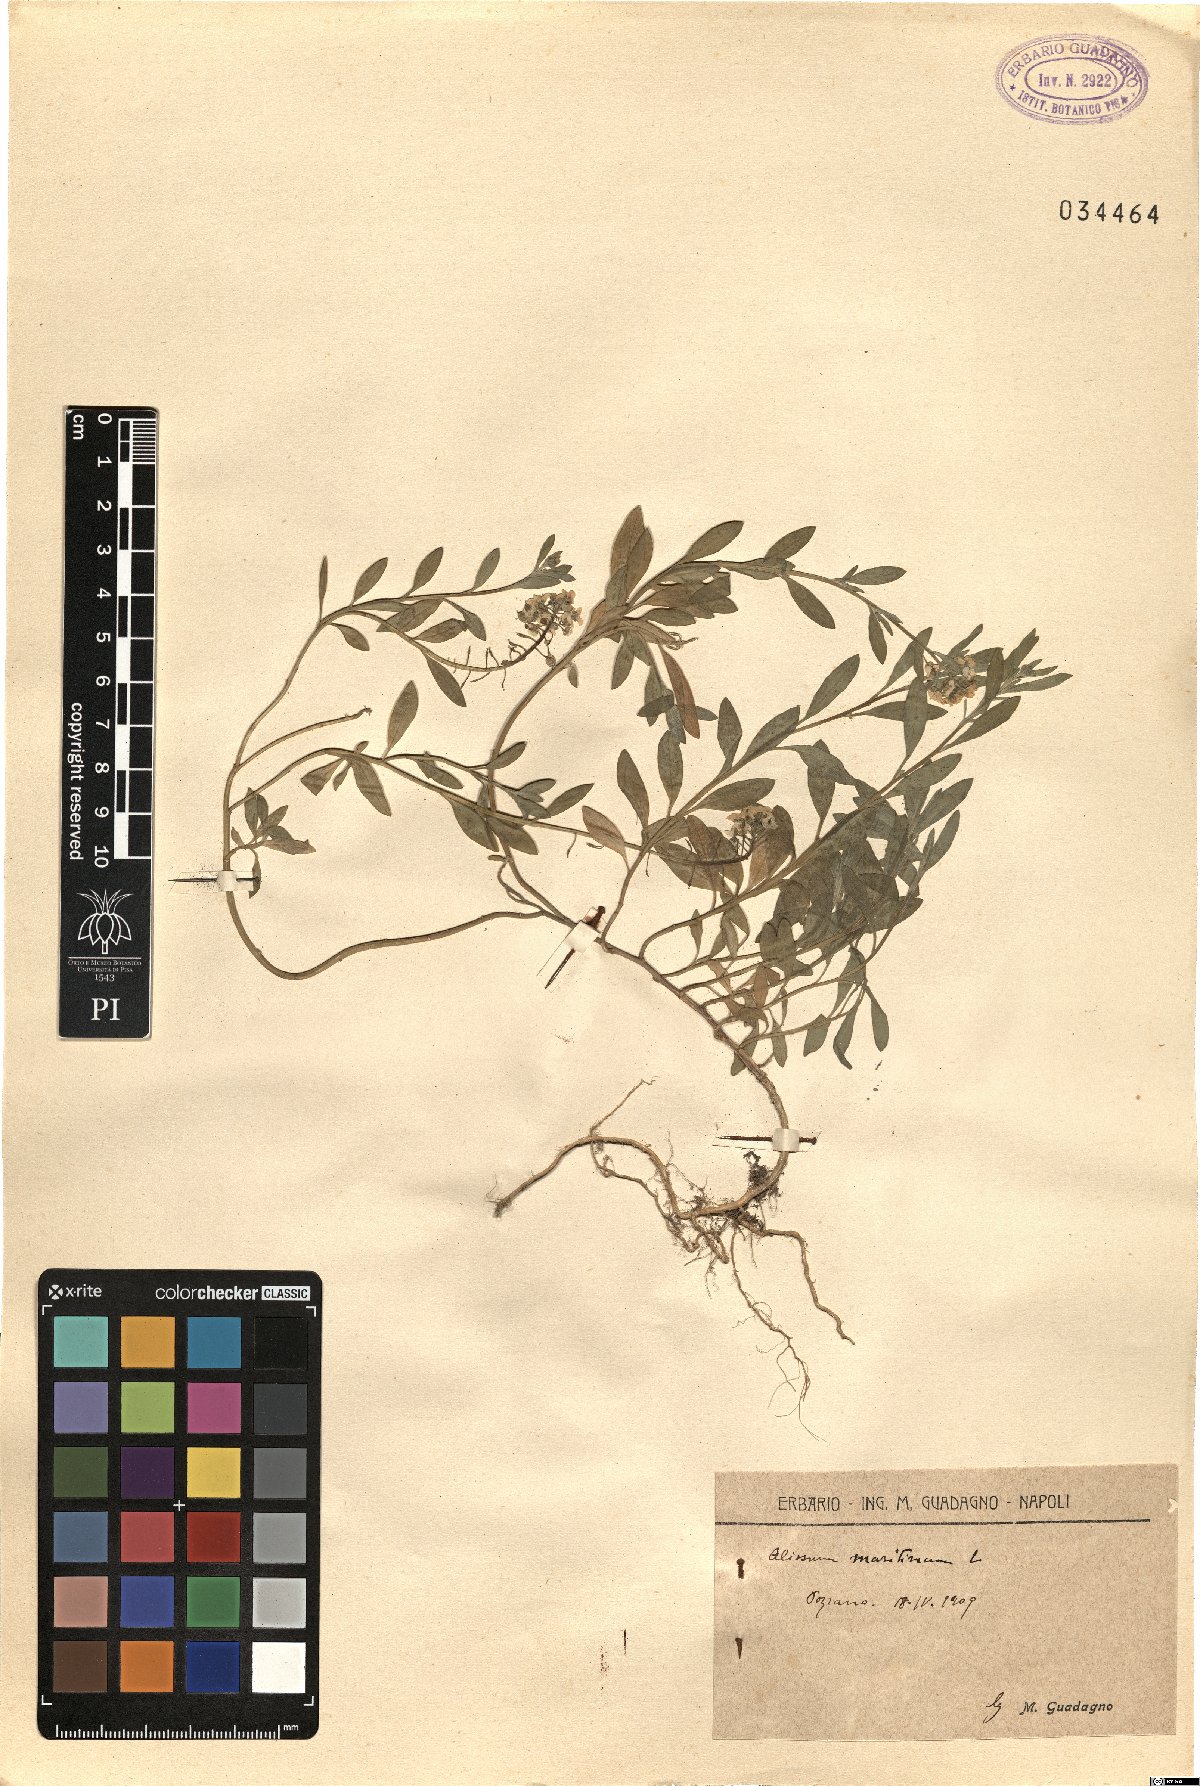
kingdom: Plantae
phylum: Tracheophyta
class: Magnoliopsida
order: Brassicales
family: Brassicaceae
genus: Lobularia
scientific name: Lobularia maritima
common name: Sweet alison
